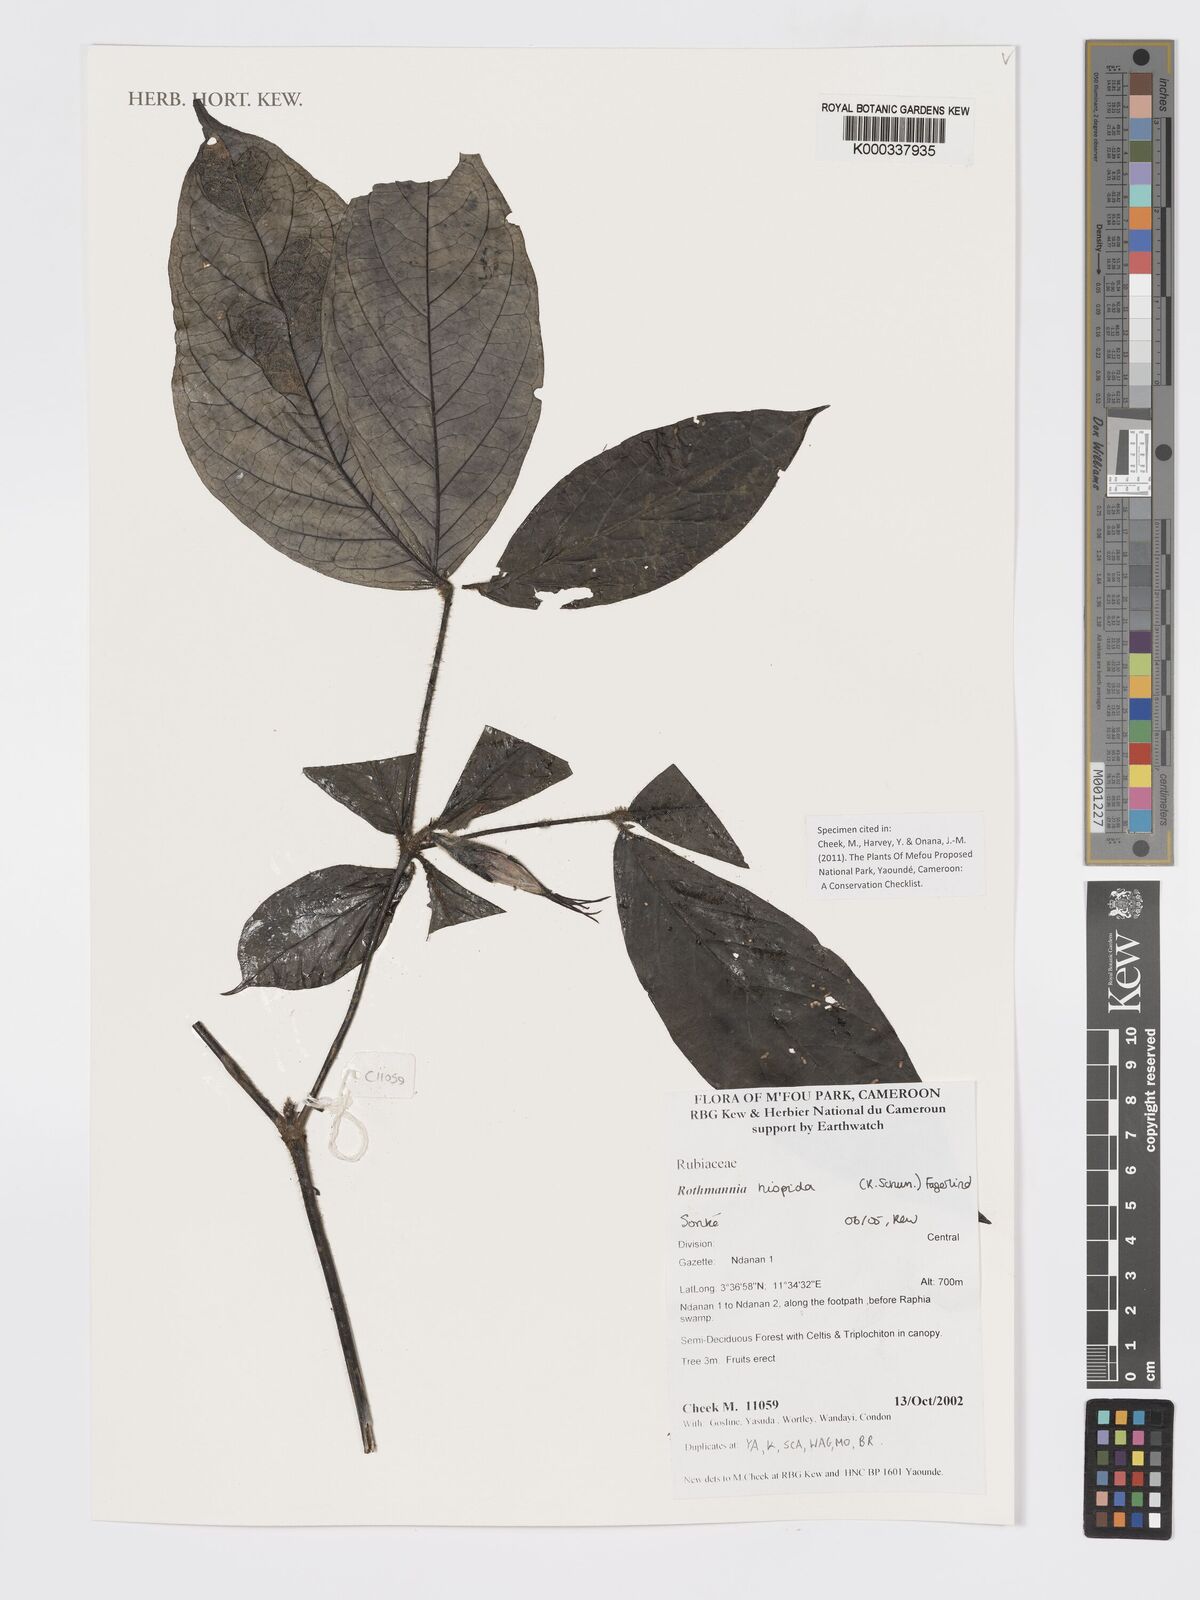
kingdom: Plantae
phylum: Tracheophyta
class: Magnoliopsida
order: Gentianales
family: Rubiaceae
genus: Rothmannia
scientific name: Rothmannia hispida
